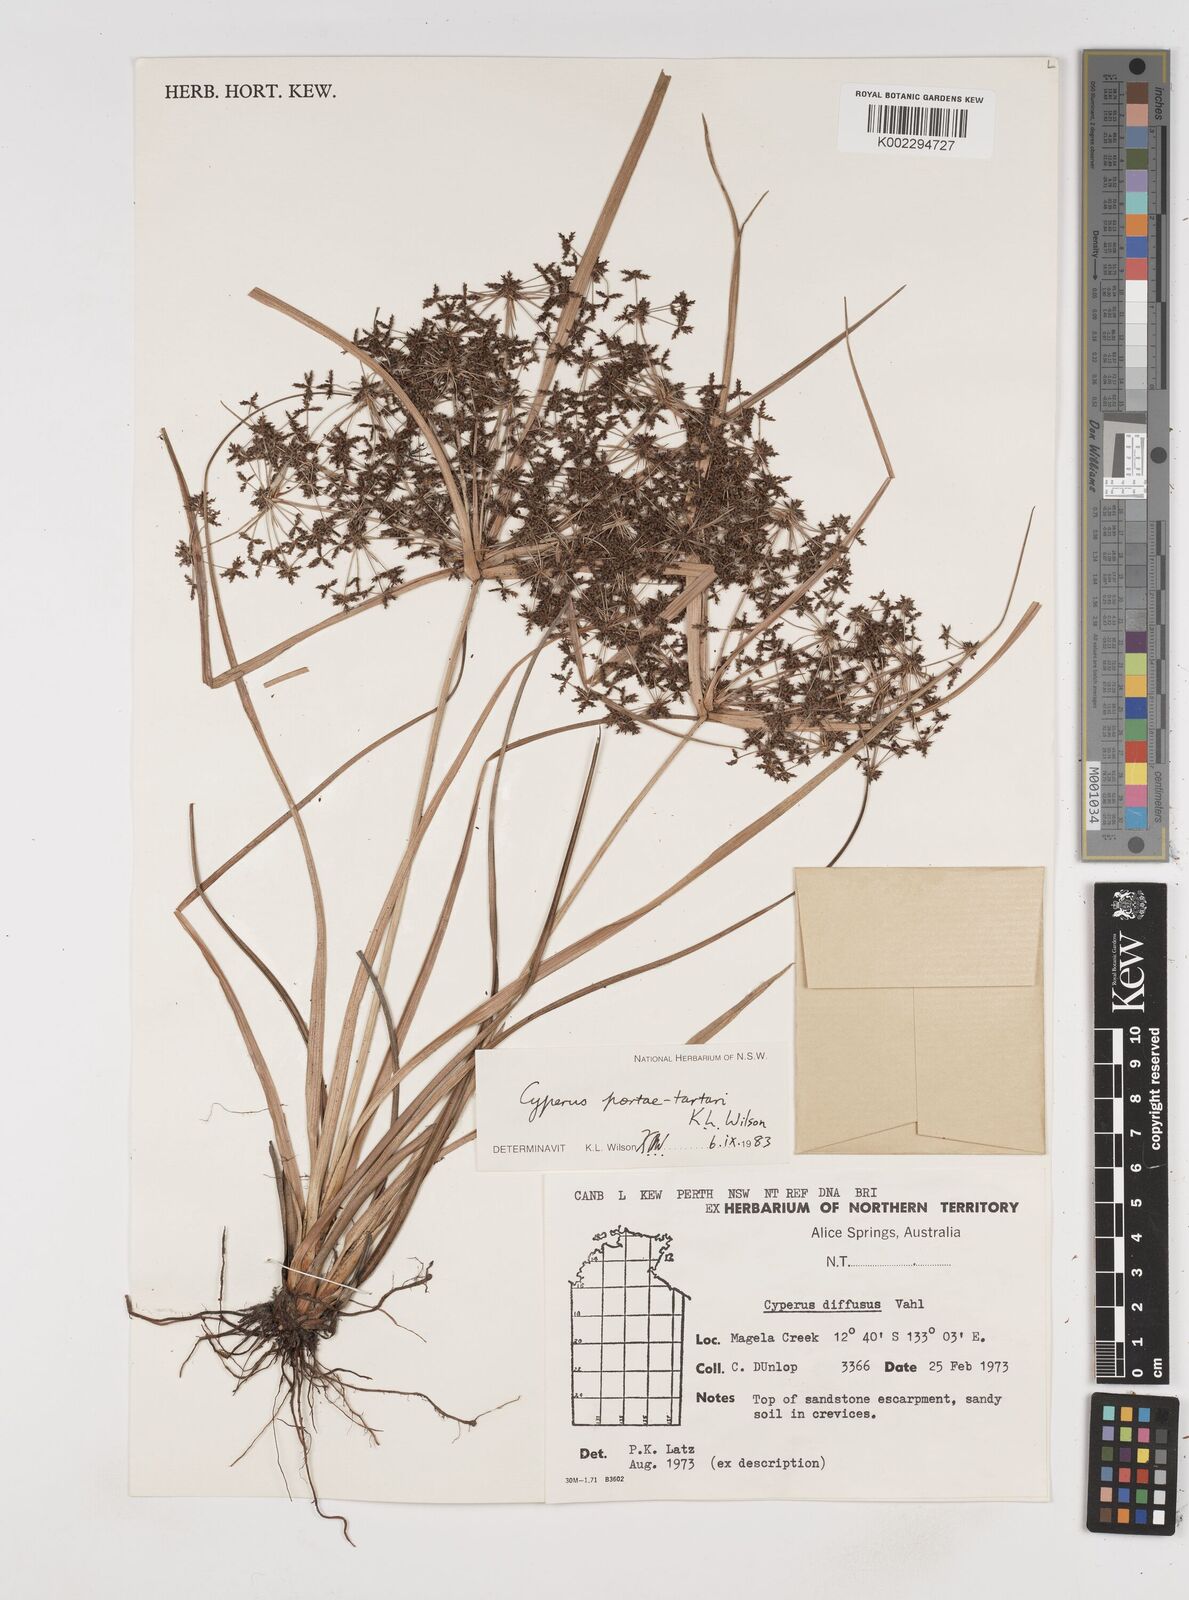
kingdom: Plantae
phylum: Tracheophyta
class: Liliopsida
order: Poales
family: Cyperaceae
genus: Cyperus
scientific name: Cyperus portae-tartari
